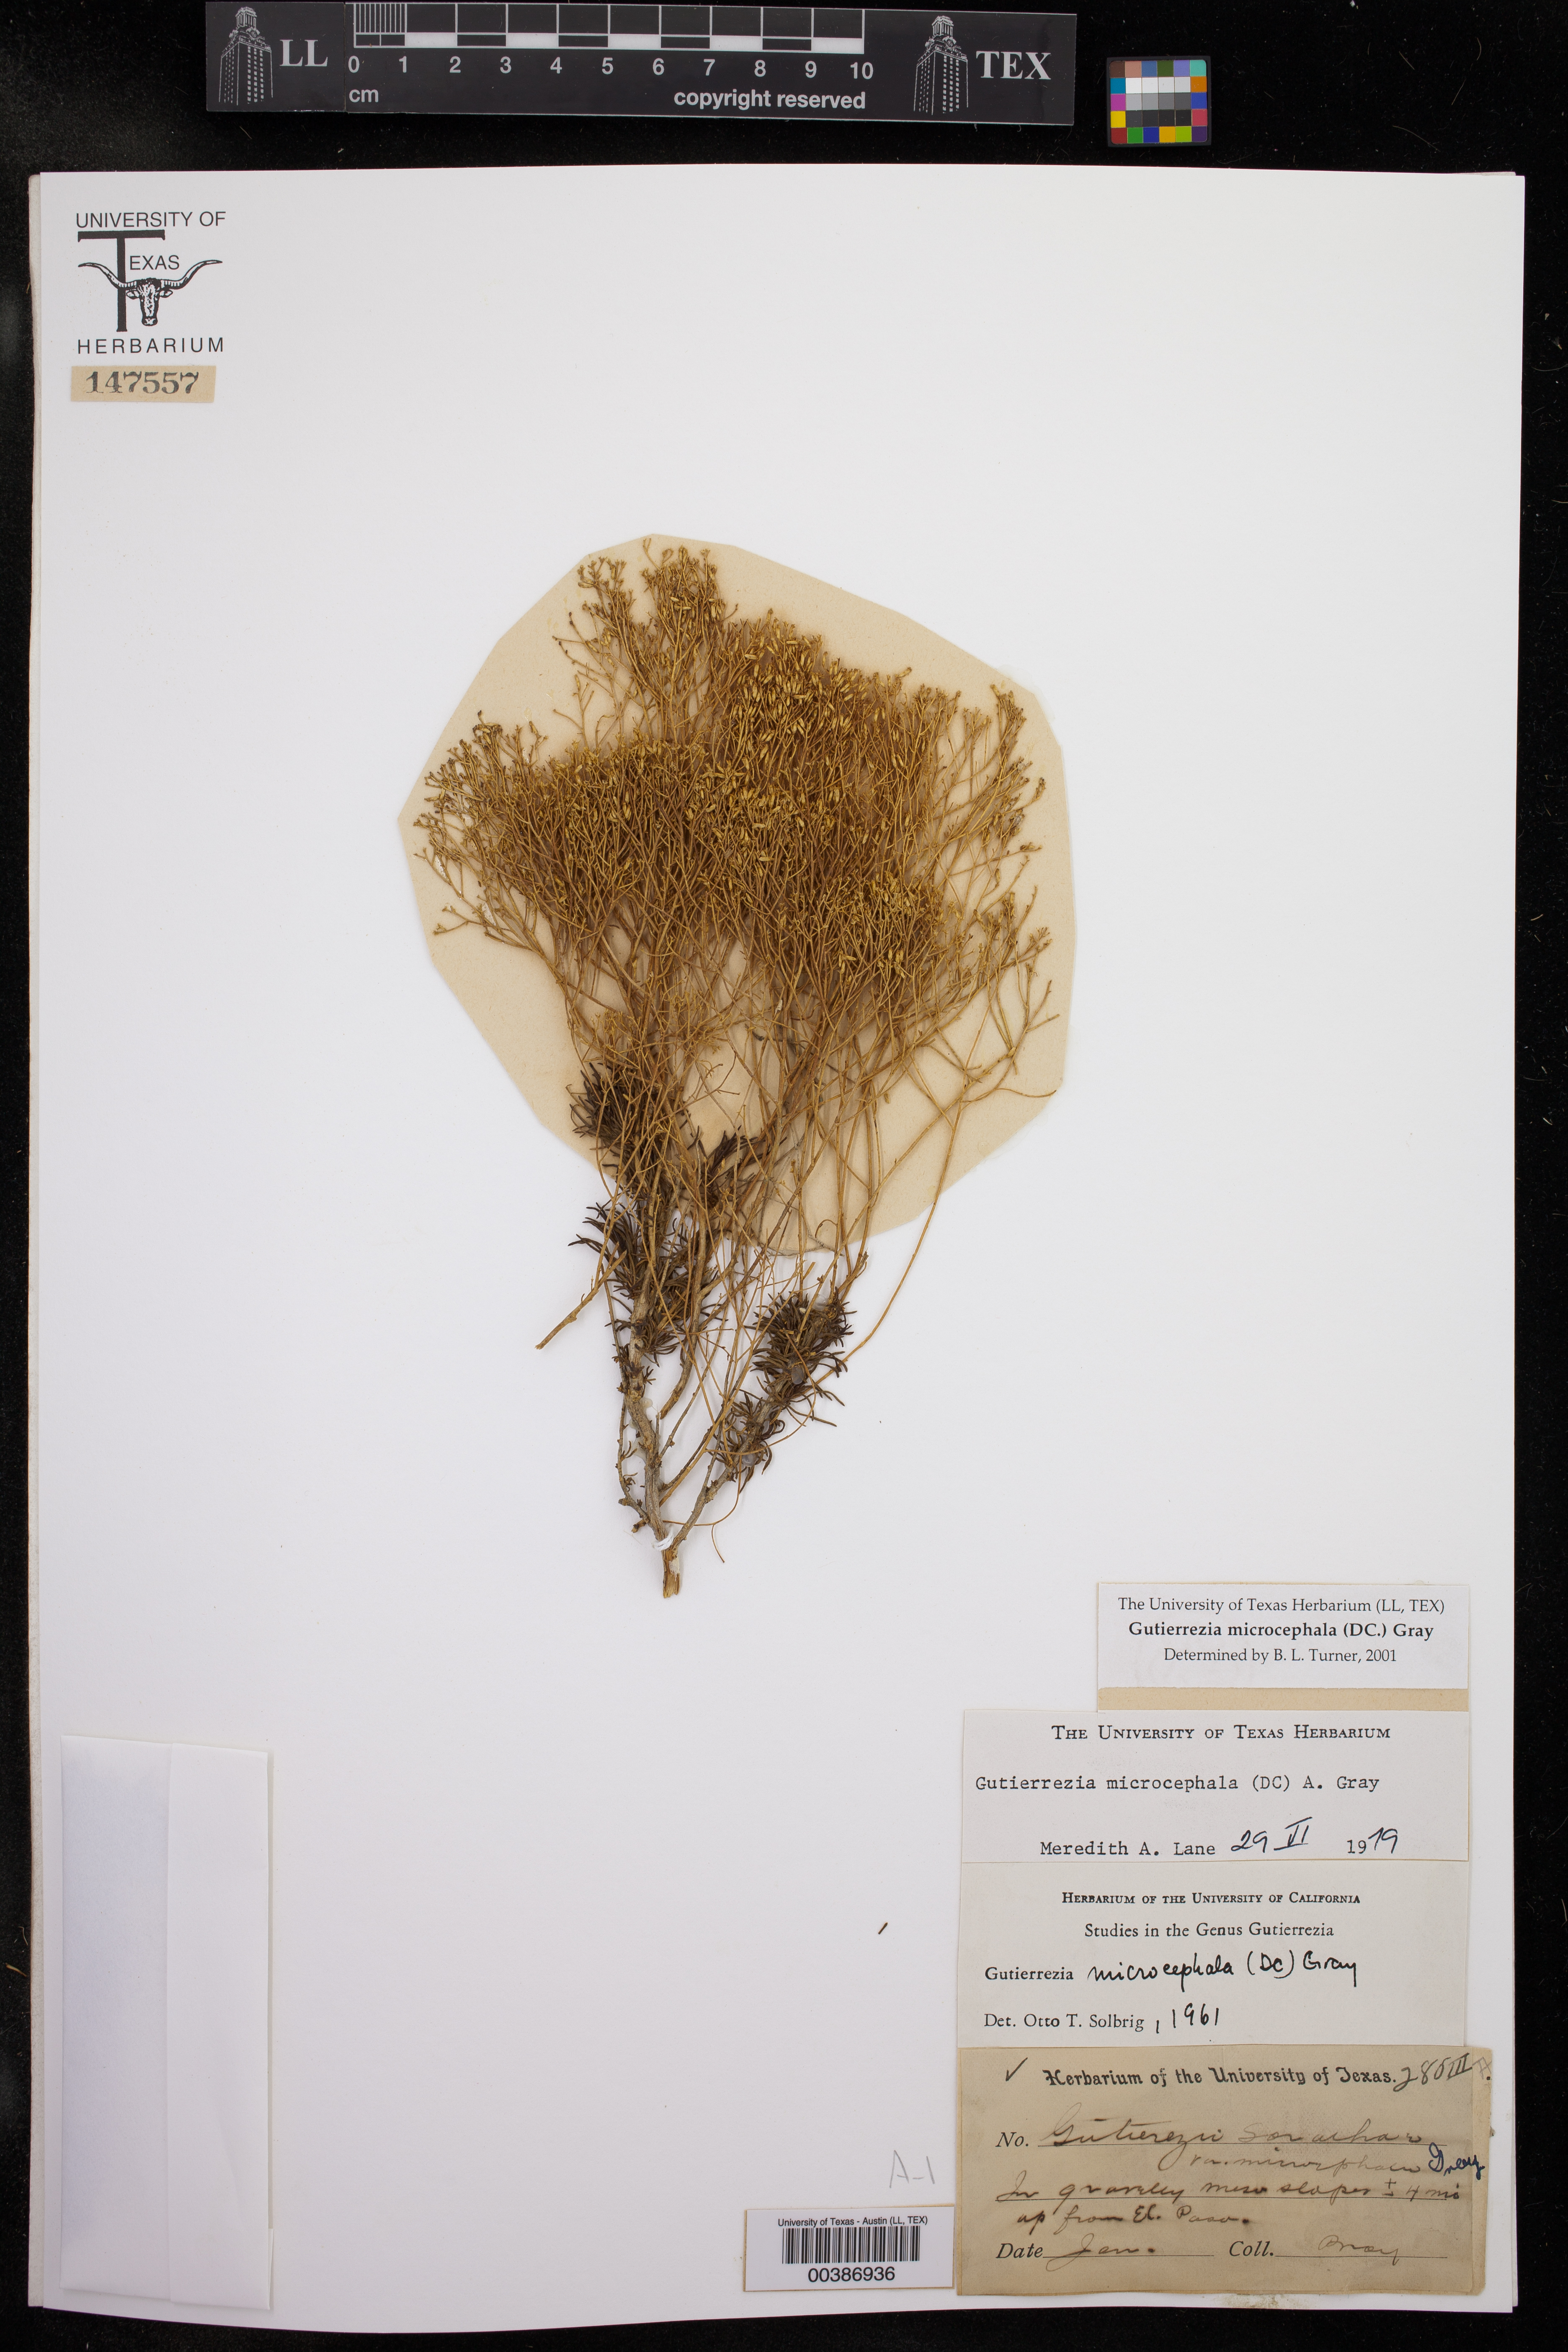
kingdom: Plantae
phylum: Tracheophyta
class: Magnoliopsida
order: Asterales
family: Asteraceae
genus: Gutierrezia
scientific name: Gutierrezia microcephala
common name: Thread snakeweed
